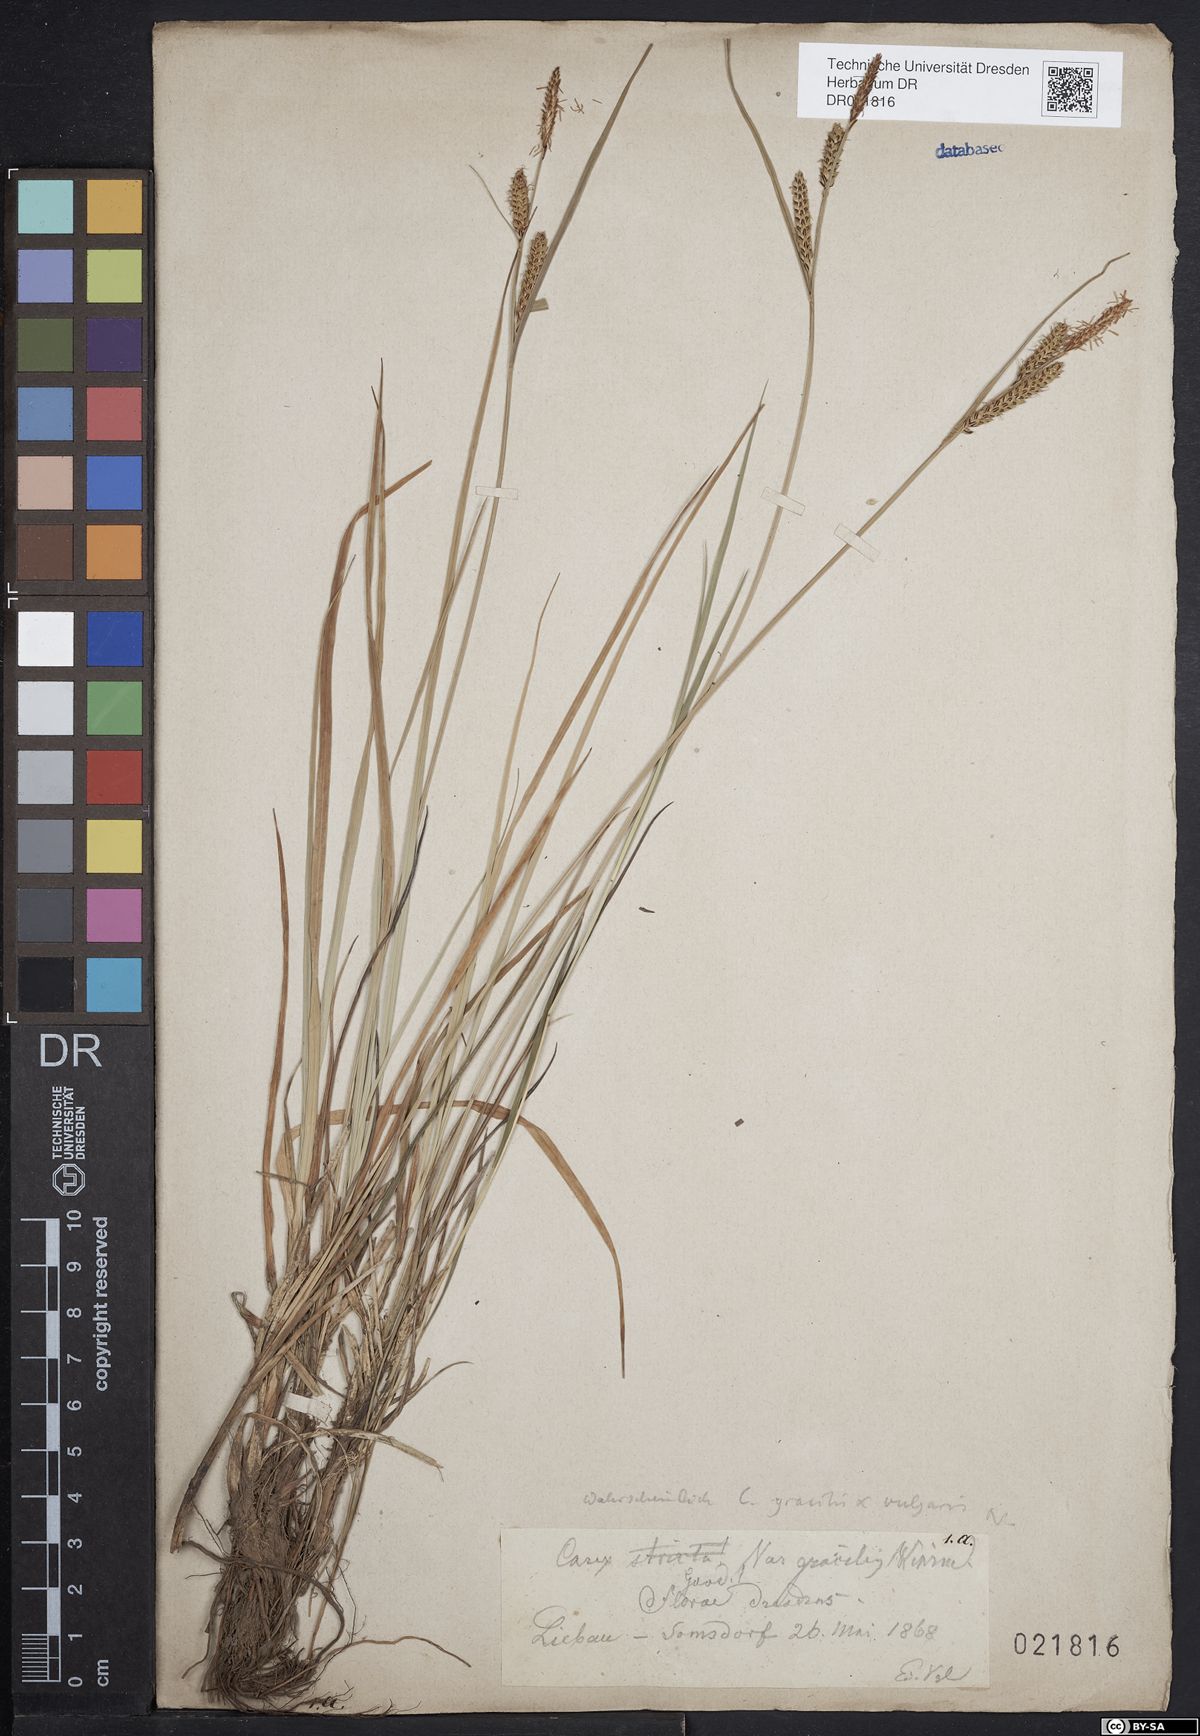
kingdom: Plantae
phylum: Tracheophyta
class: Liliopsida
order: Poales
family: Cyperaceae
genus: Carex
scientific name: Carex elytroides
